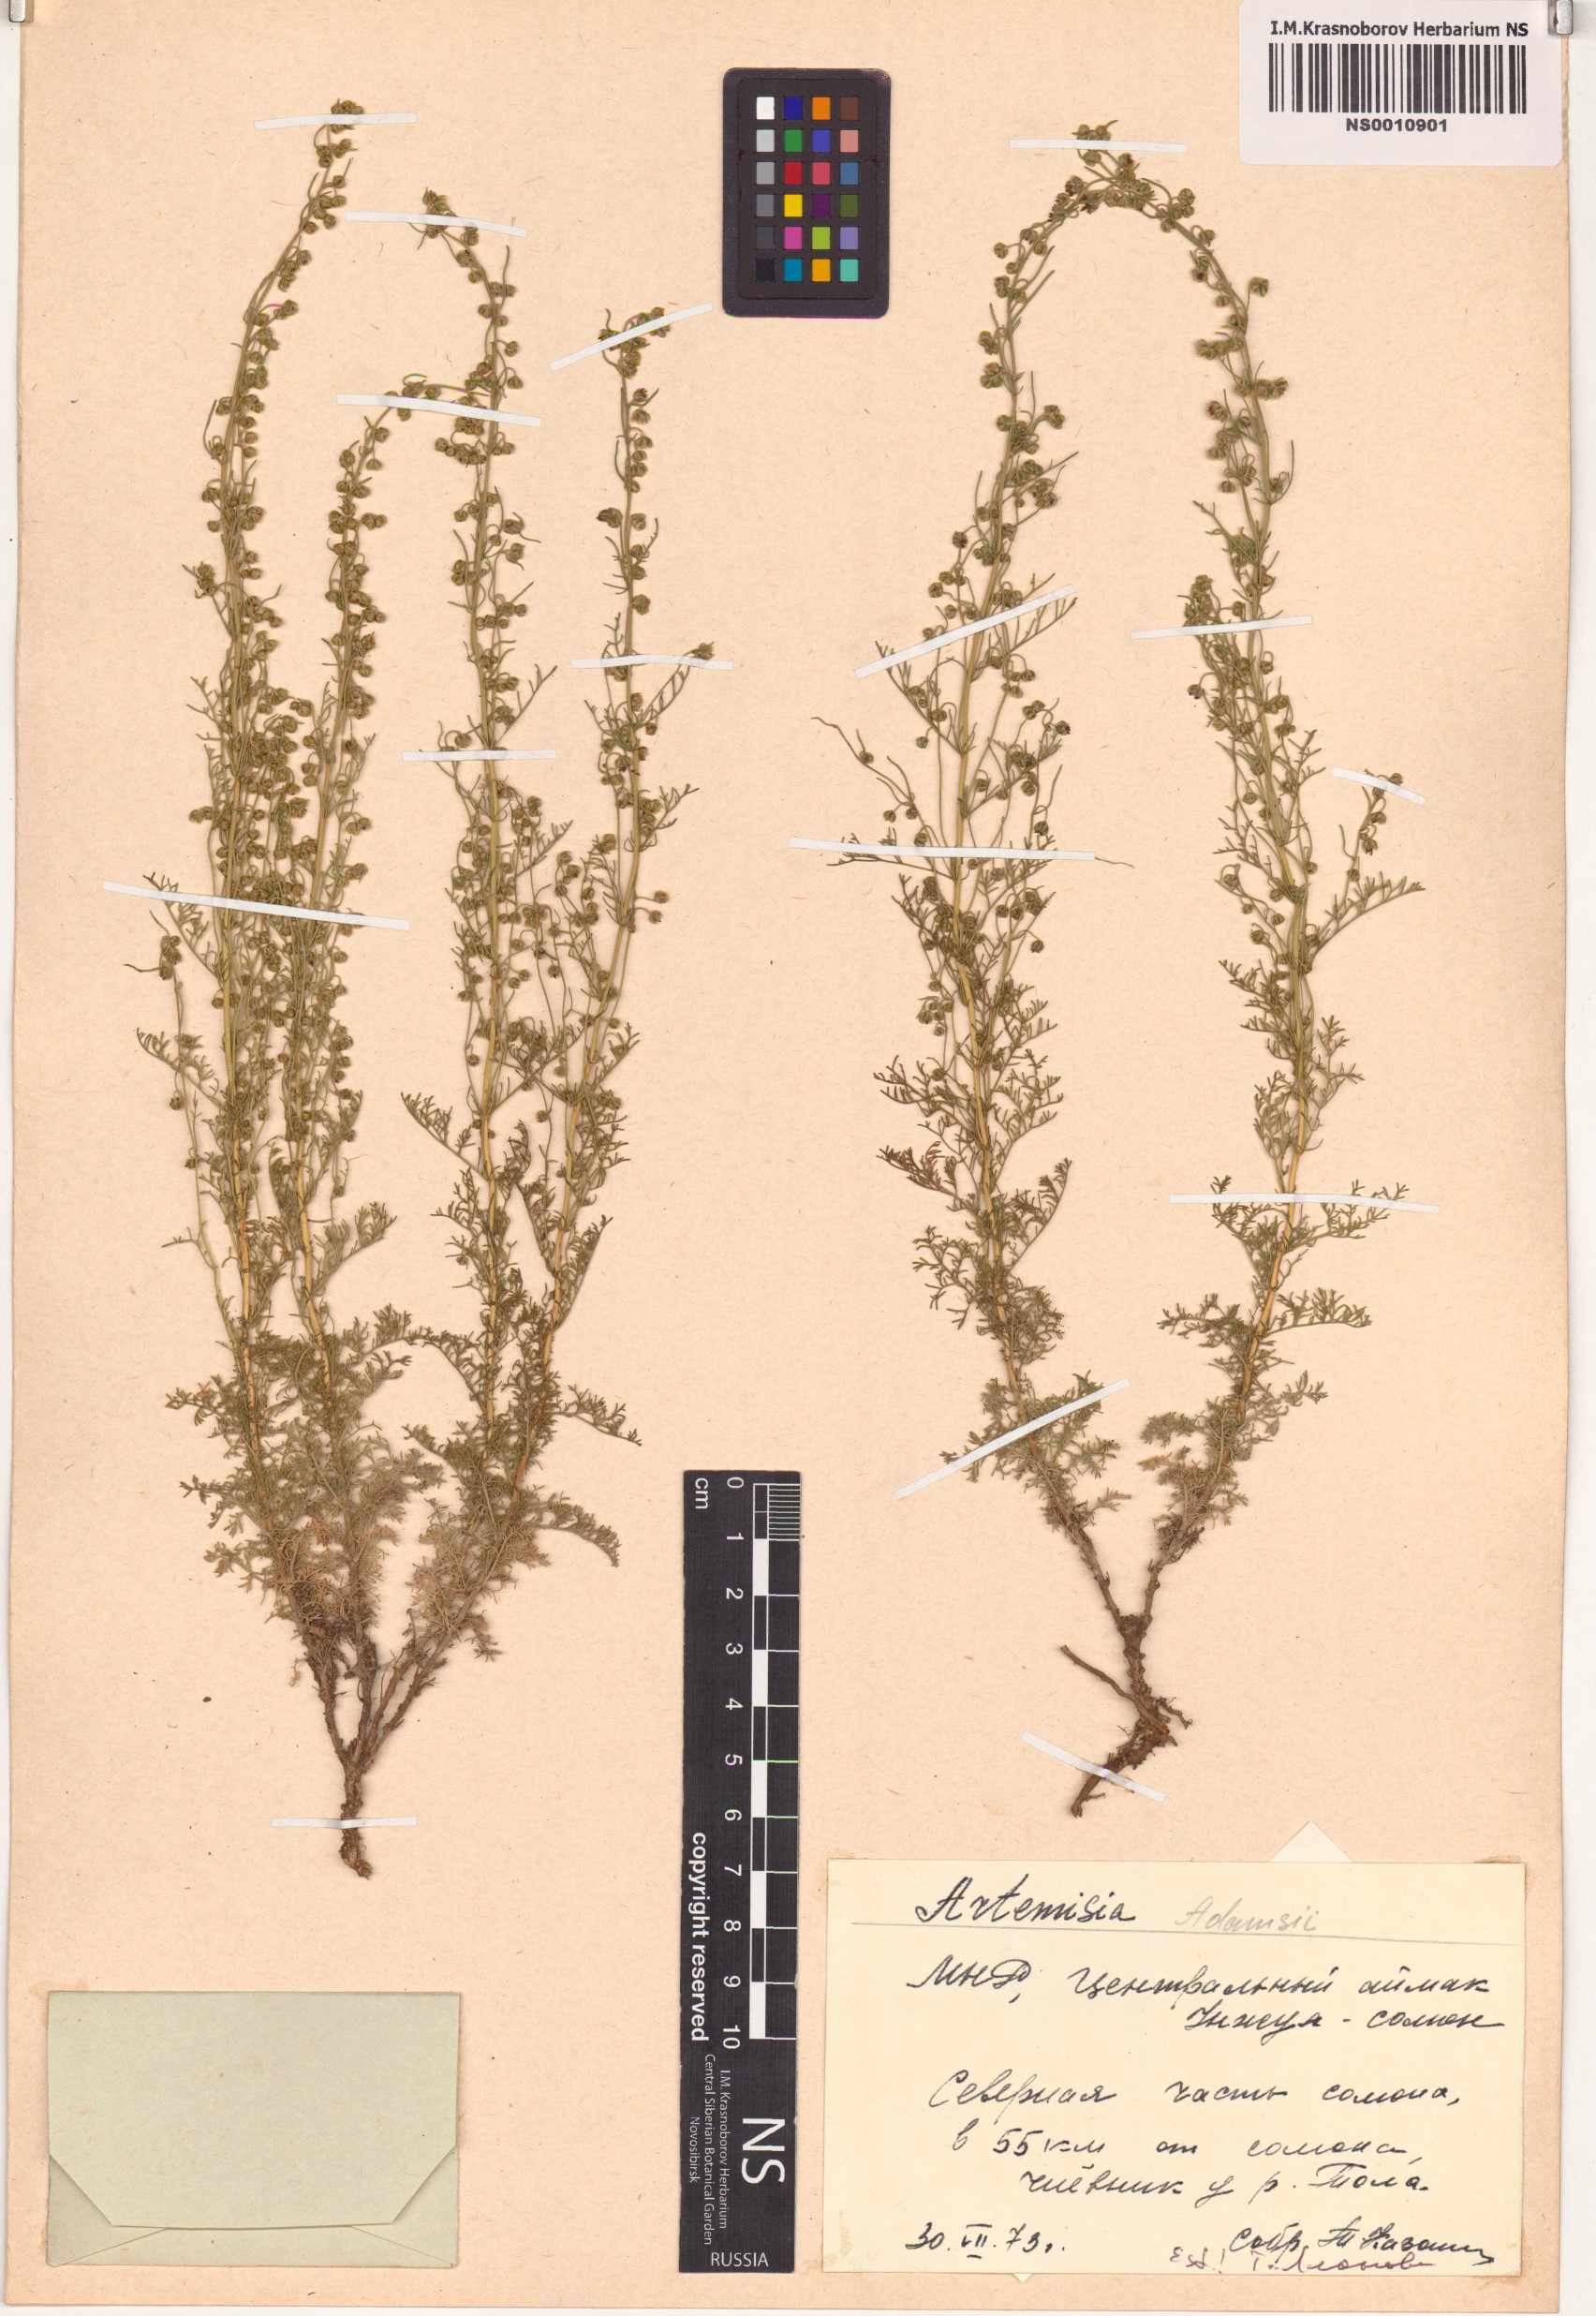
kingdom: Plantae
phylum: Tracheophyta
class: Magnoliopsida
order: Asterales
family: Asteraceae
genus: Artemisia
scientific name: Artemisia adamsii
